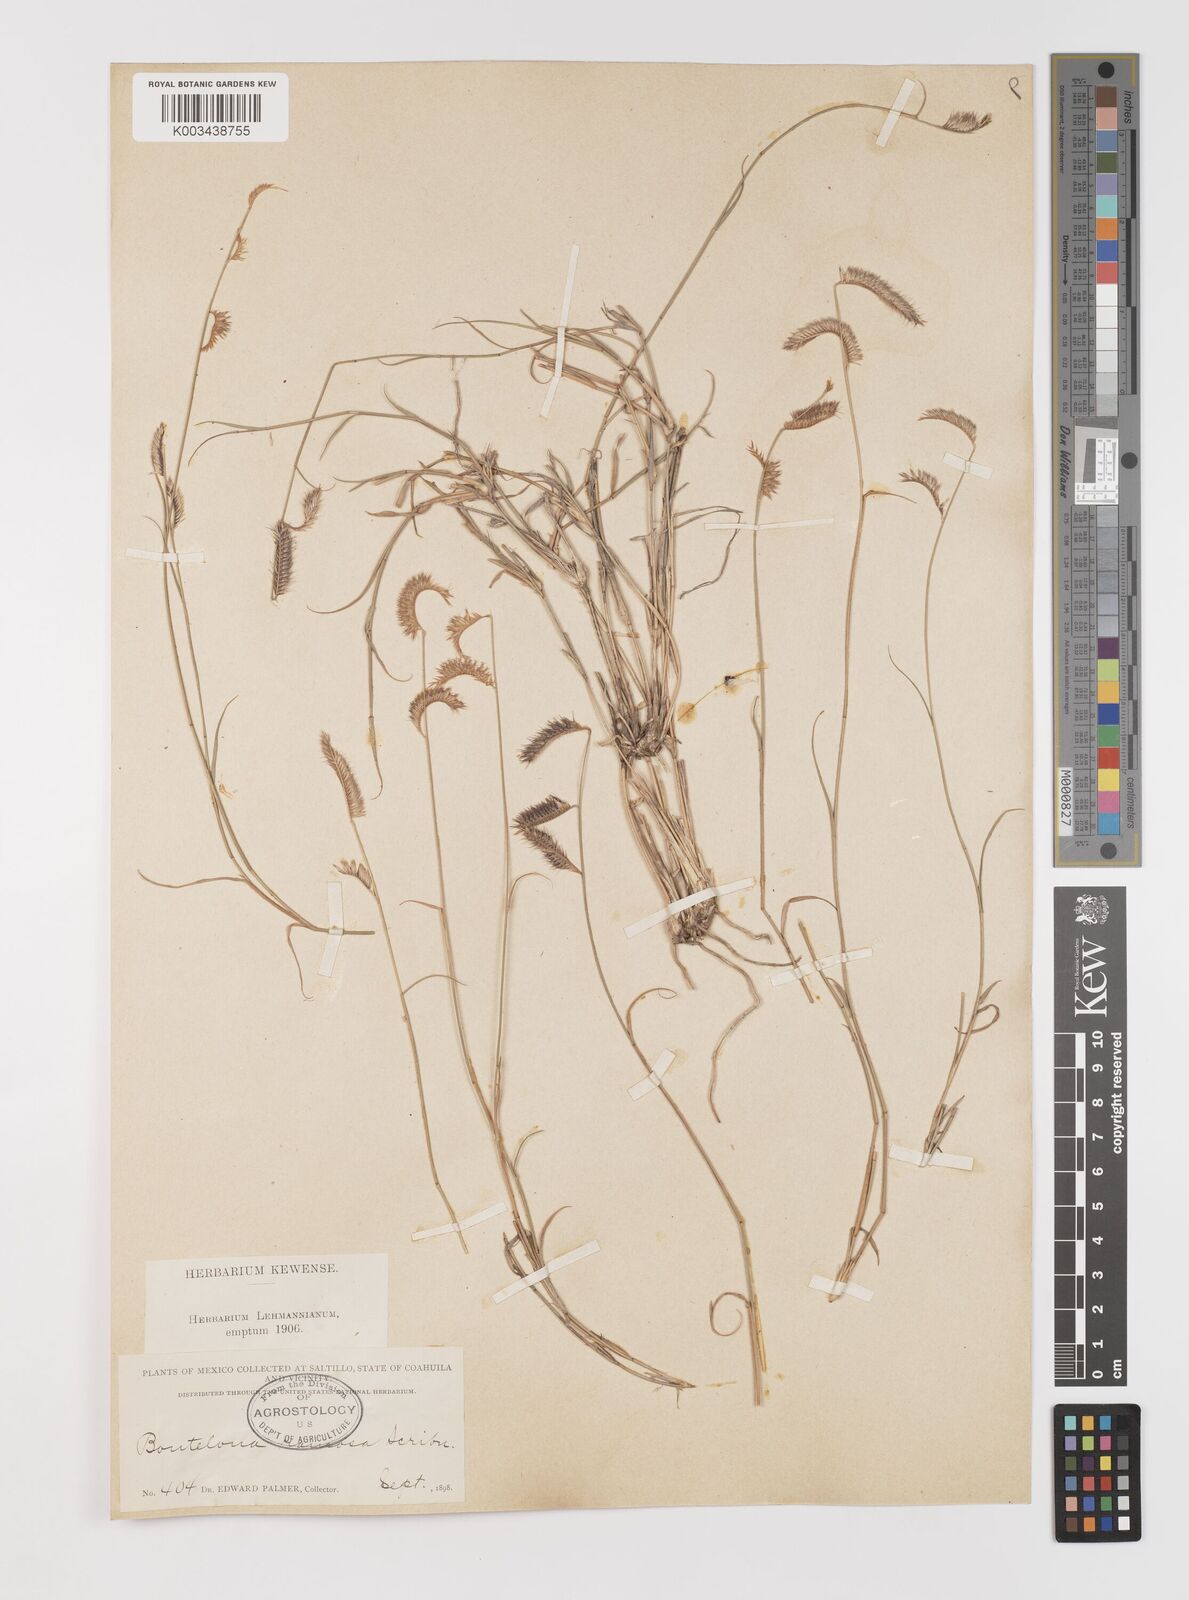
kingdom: Plantae
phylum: Tracheophyta
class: Liliopsida
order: Poales
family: Poaceae
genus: Bouteloua
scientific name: Bouteloua
